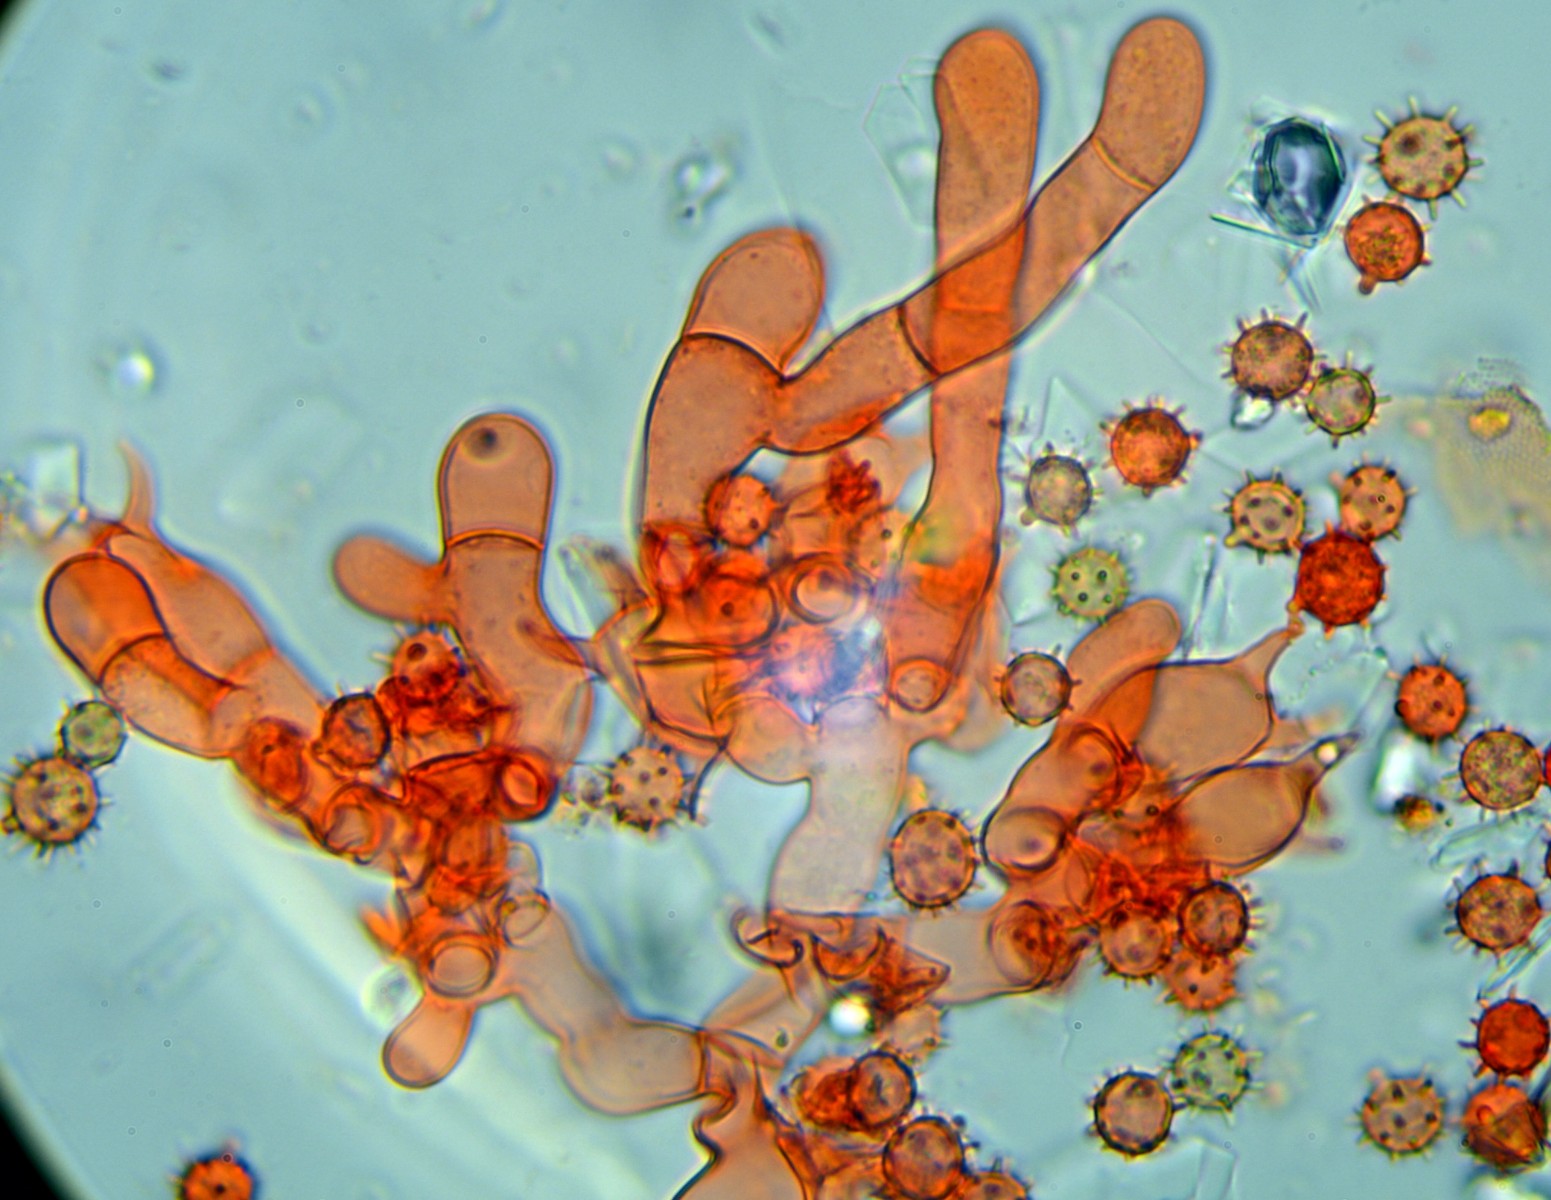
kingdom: Fungi
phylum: Basidiomycota
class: Agaricomycetes
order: Cantharellales
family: Botryobasidiaceae
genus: Botryobasidium
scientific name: Botryobasidium isabellinum
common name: isabellafarvet spindhinde
